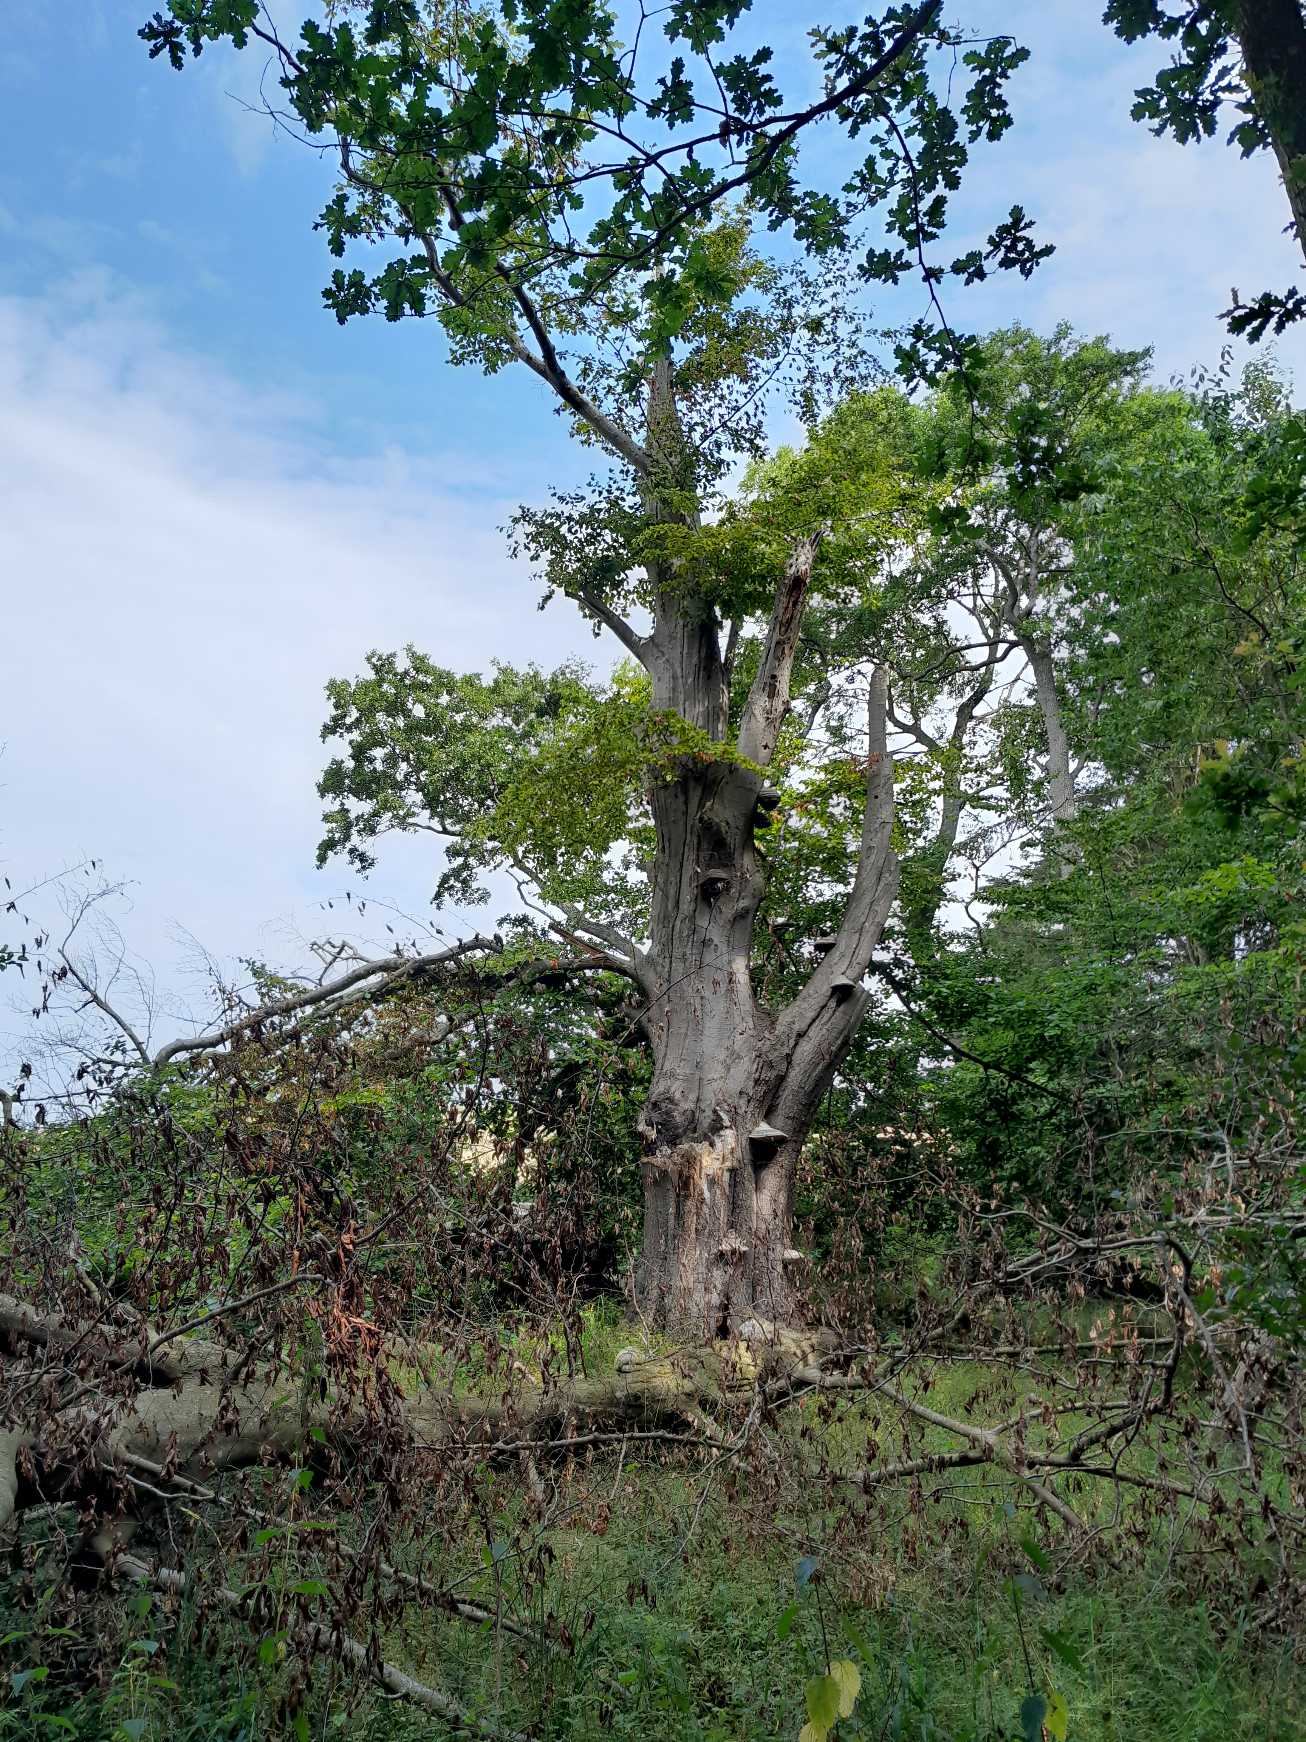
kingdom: Plantae
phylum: Tracheophyta
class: Magnoliopsida
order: Fagales
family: Fagaceae
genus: Fagus
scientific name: Fagus sylvatica
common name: Bøg
